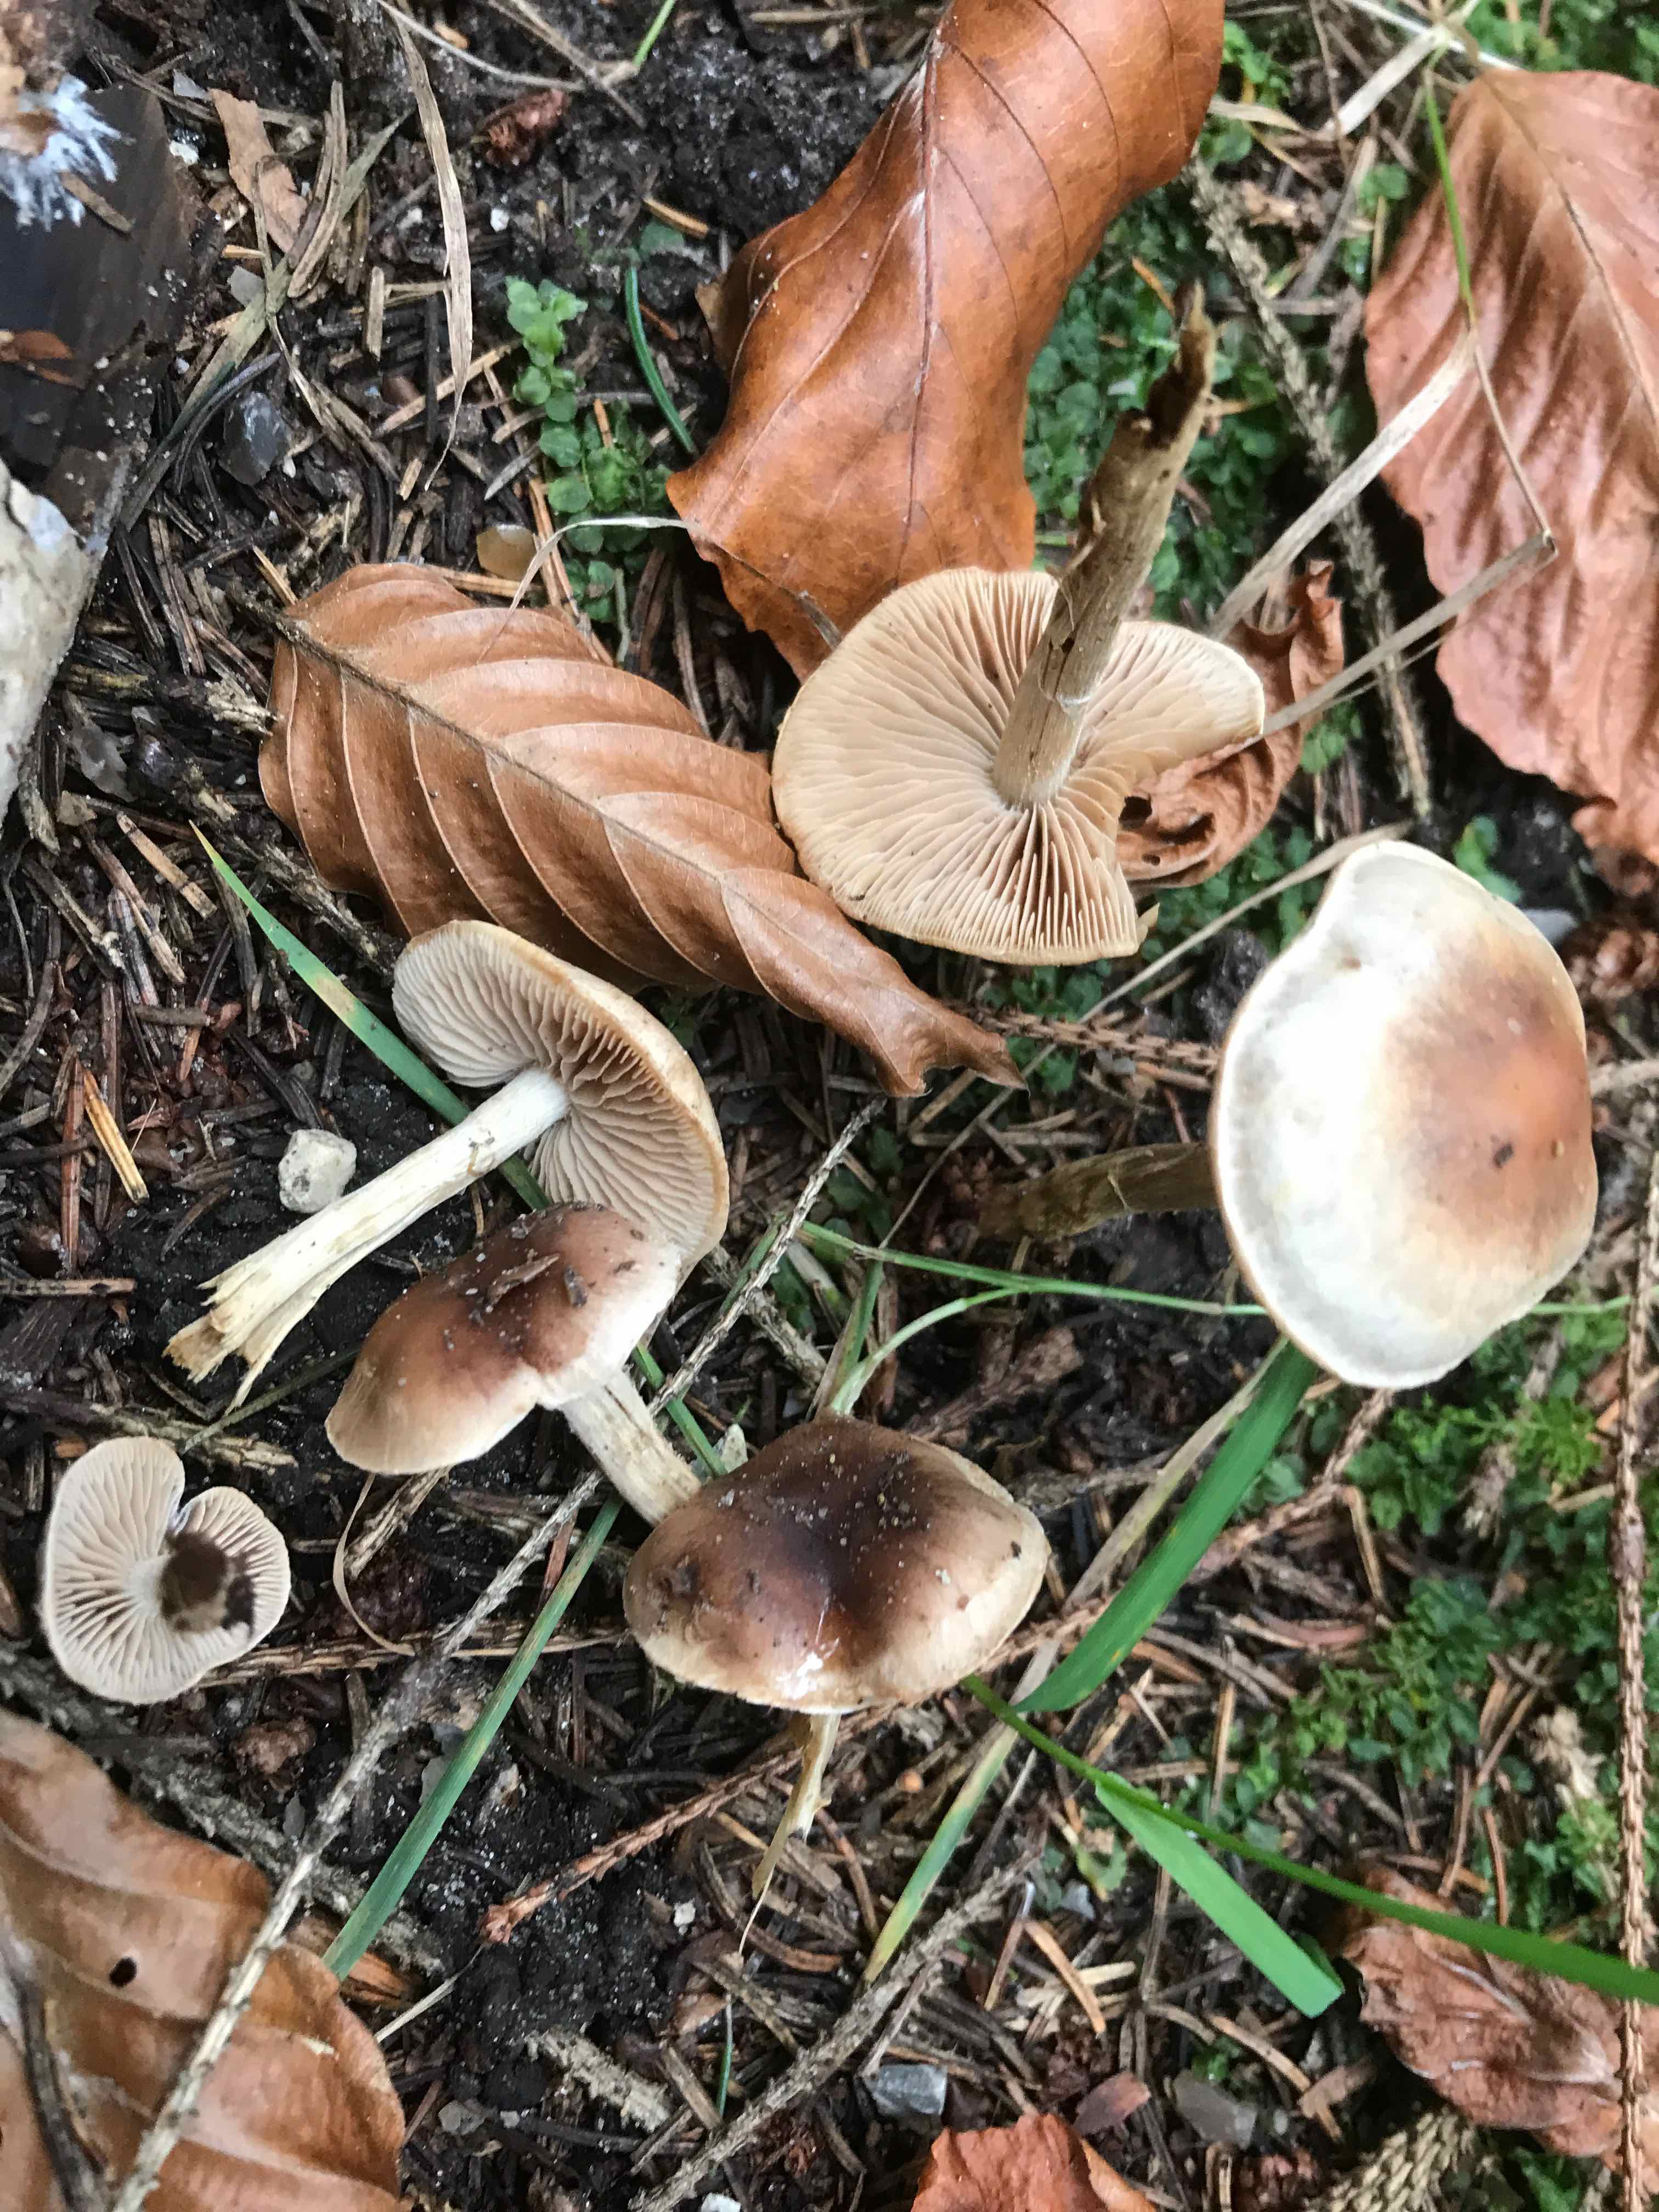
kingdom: Fungi
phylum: Basidiomycota
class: Agaricomycetes
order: Agaricales
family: Hymenogastraceae
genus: Hebeloma
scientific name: Hebeloma mesophaeum
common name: lerbrun tåreblad
